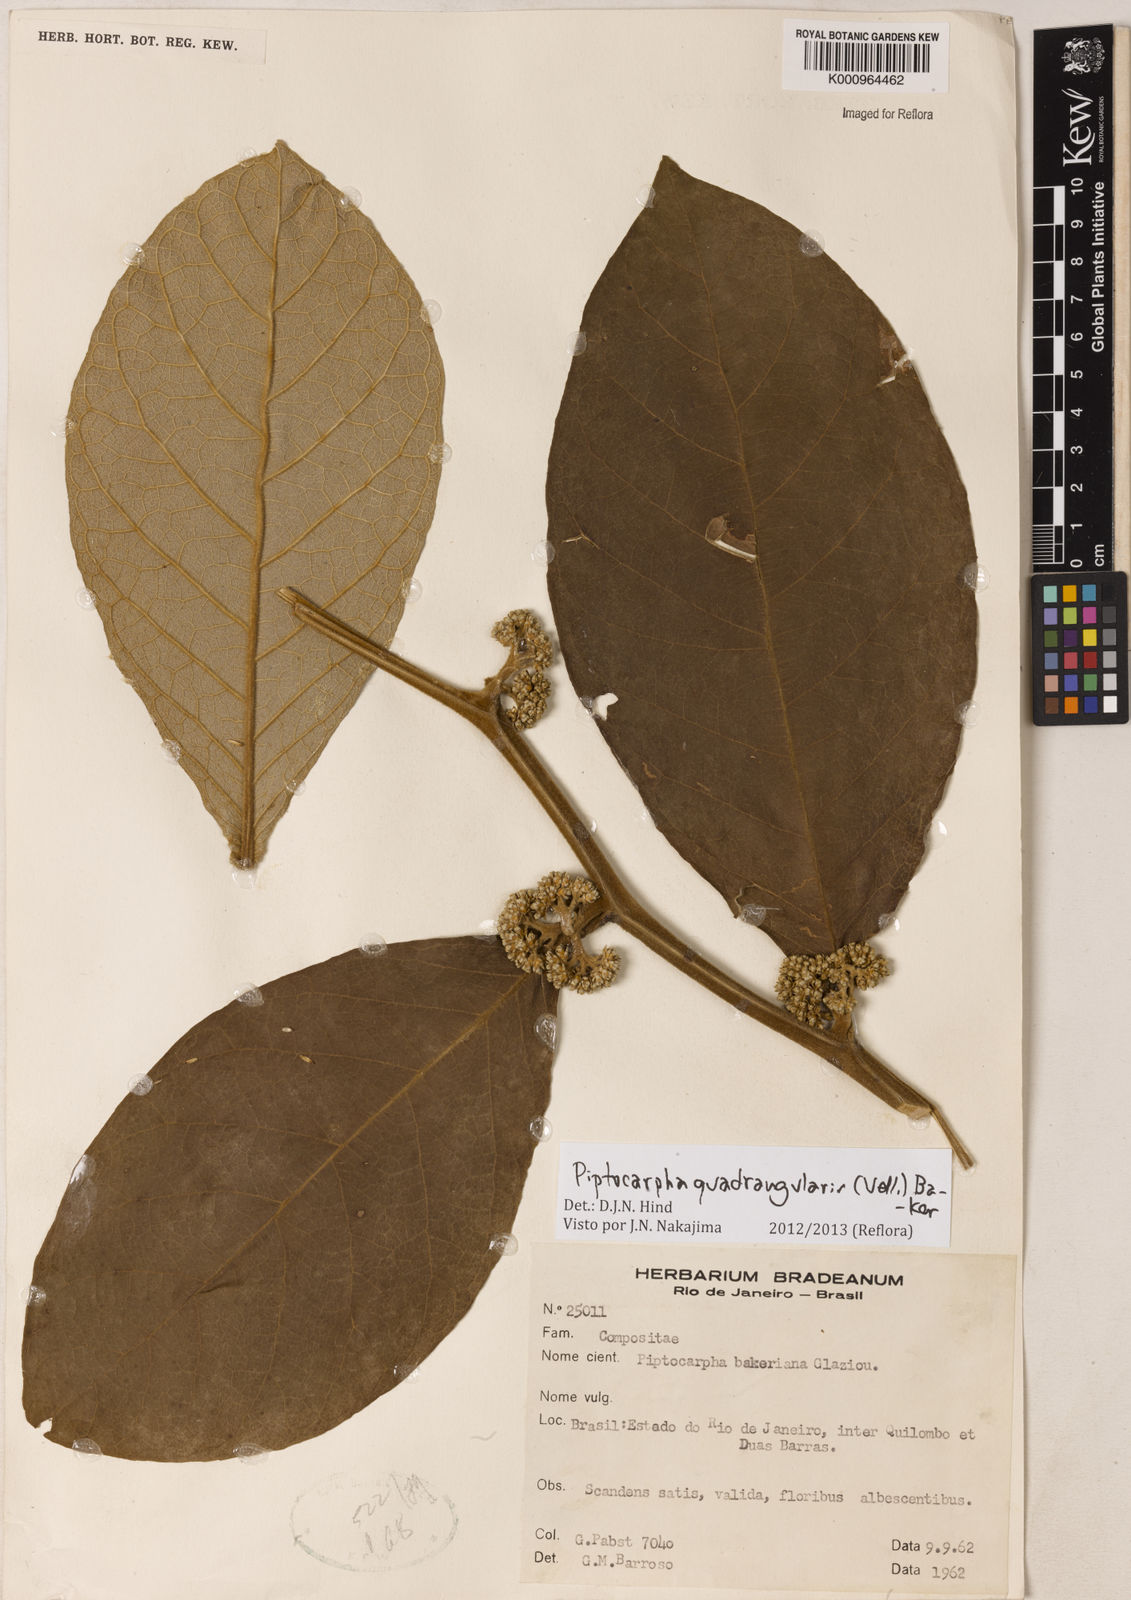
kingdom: Plantae
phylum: Tracheophyta
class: Magnoliopsida
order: Asterales
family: Asteraceae
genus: Piptocarpha
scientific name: Piptocarpha quadrangularis
